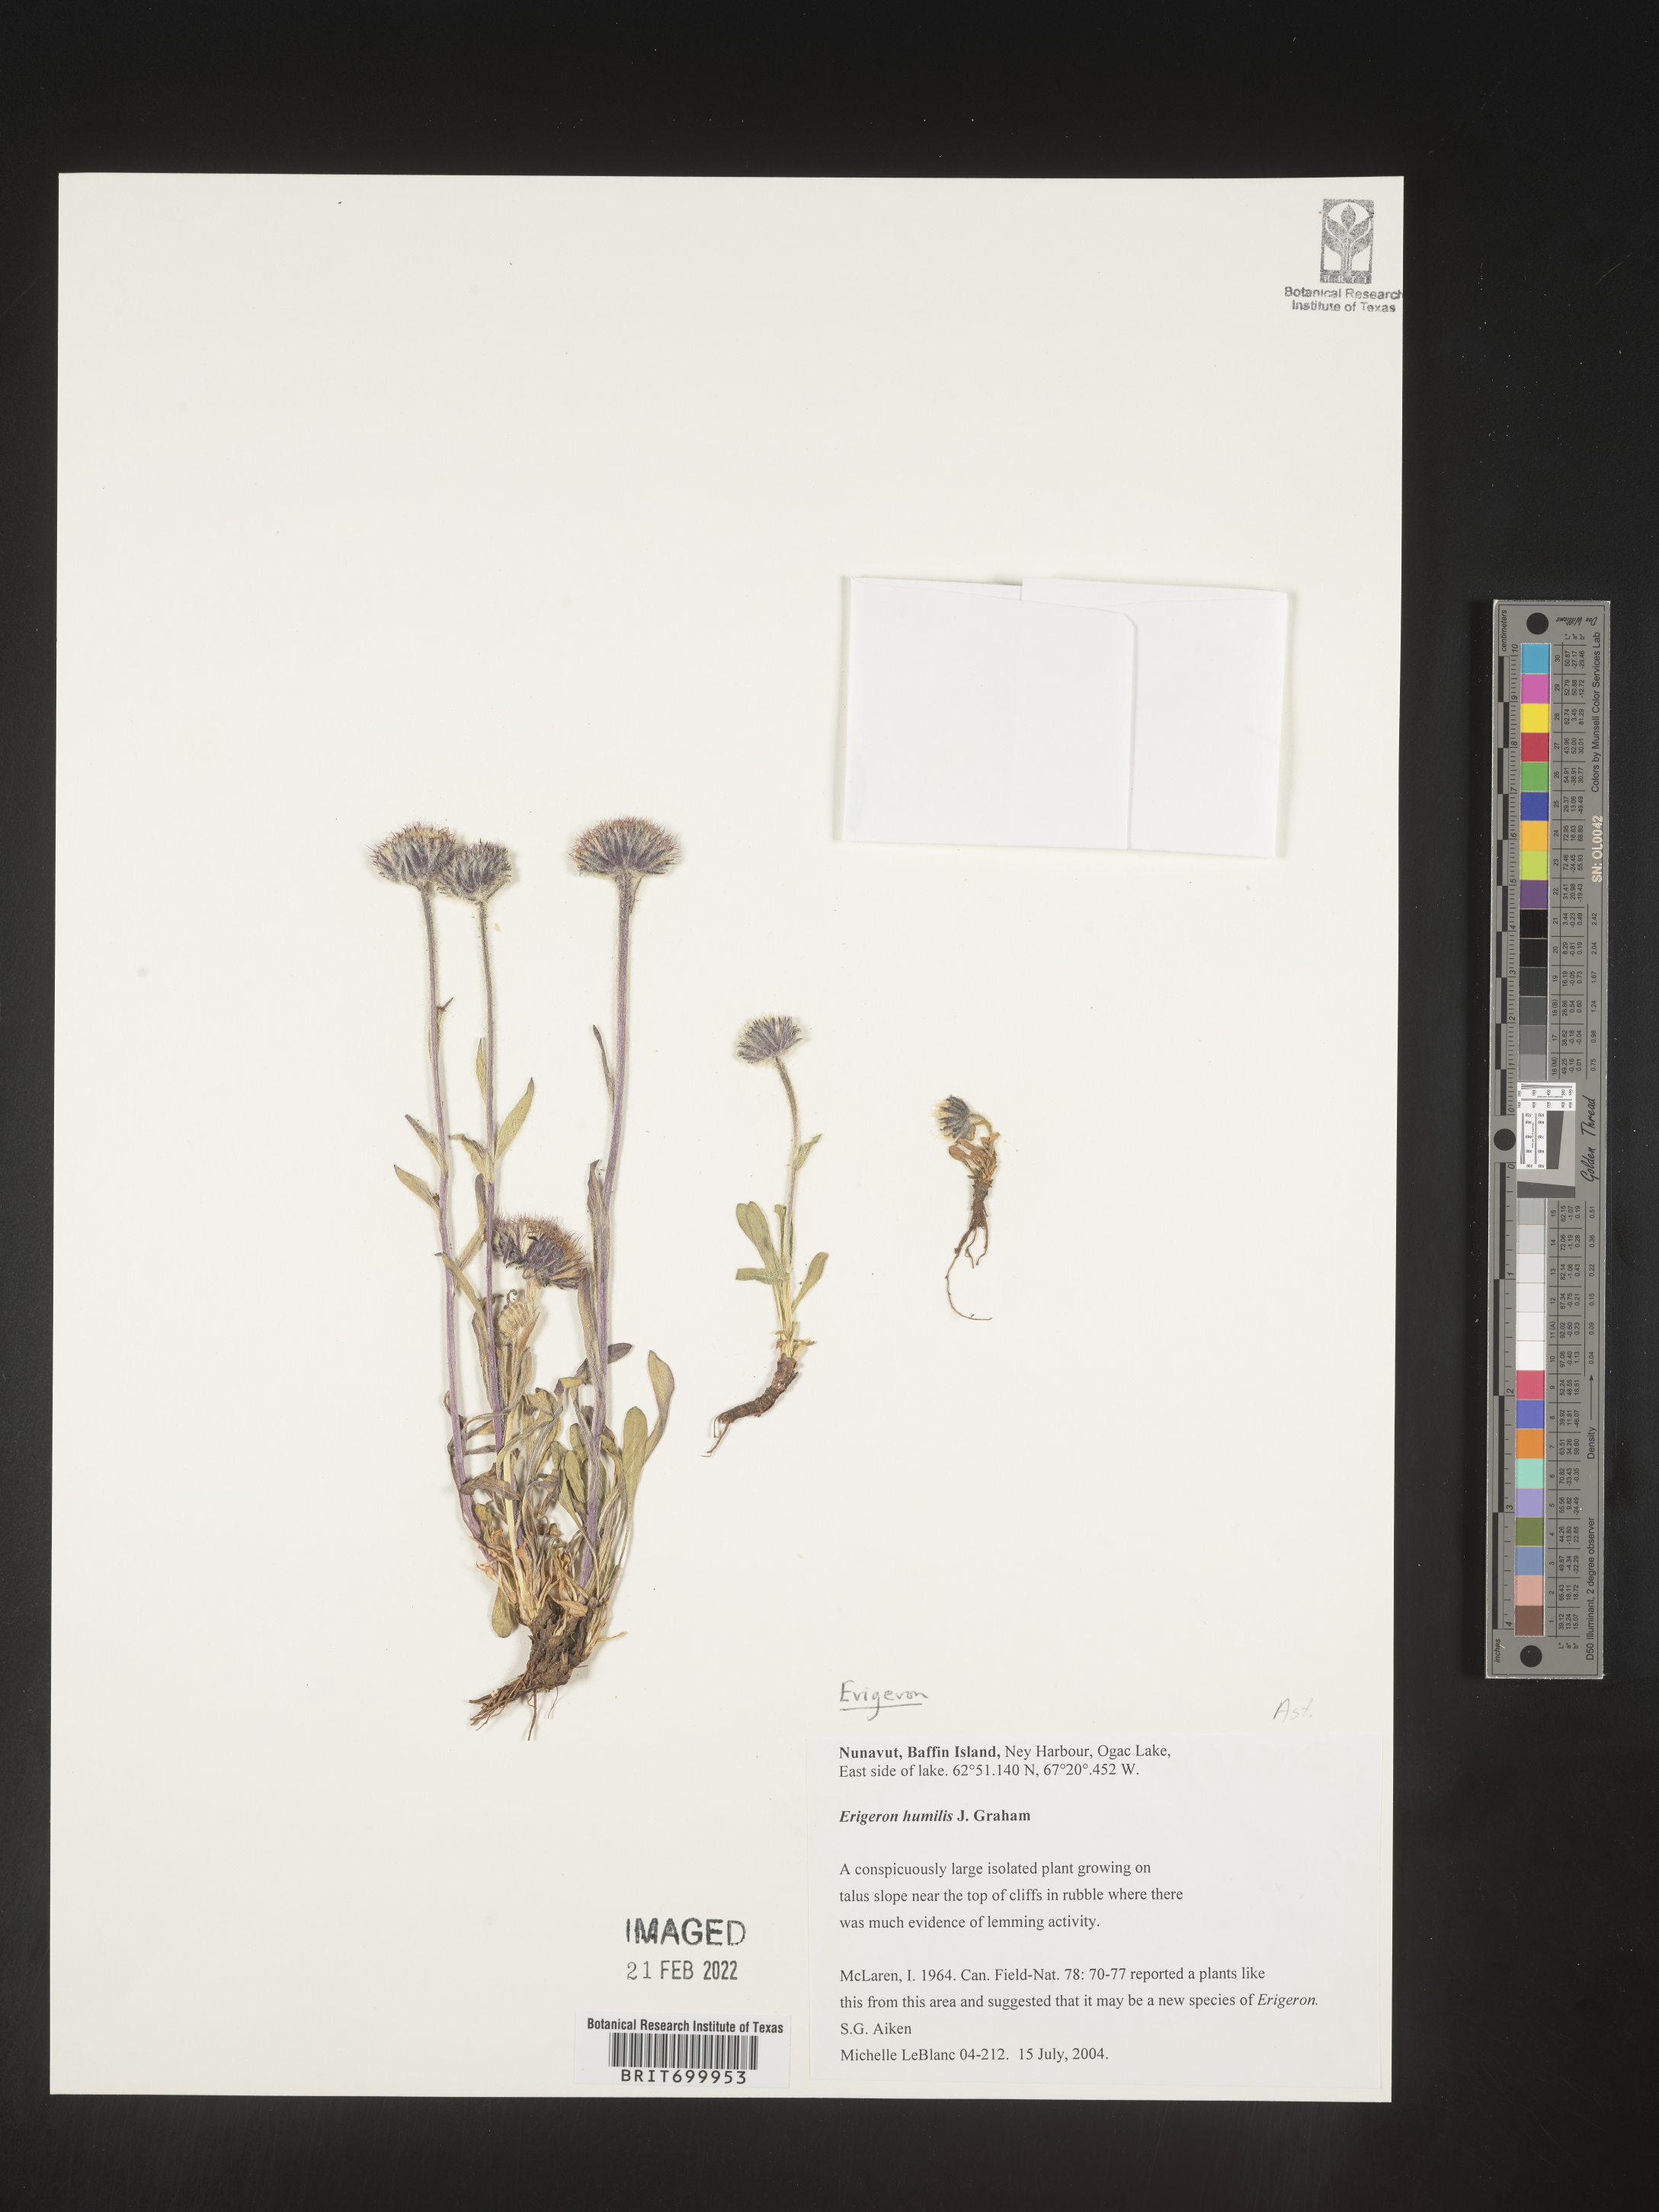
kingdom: Plantae
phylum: Tracheophyta
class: Magnoliopsida
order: Asterales
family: Asteraceae
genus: Erigeron
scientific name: Erigeron pulchellus
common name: Hairy fleabane
